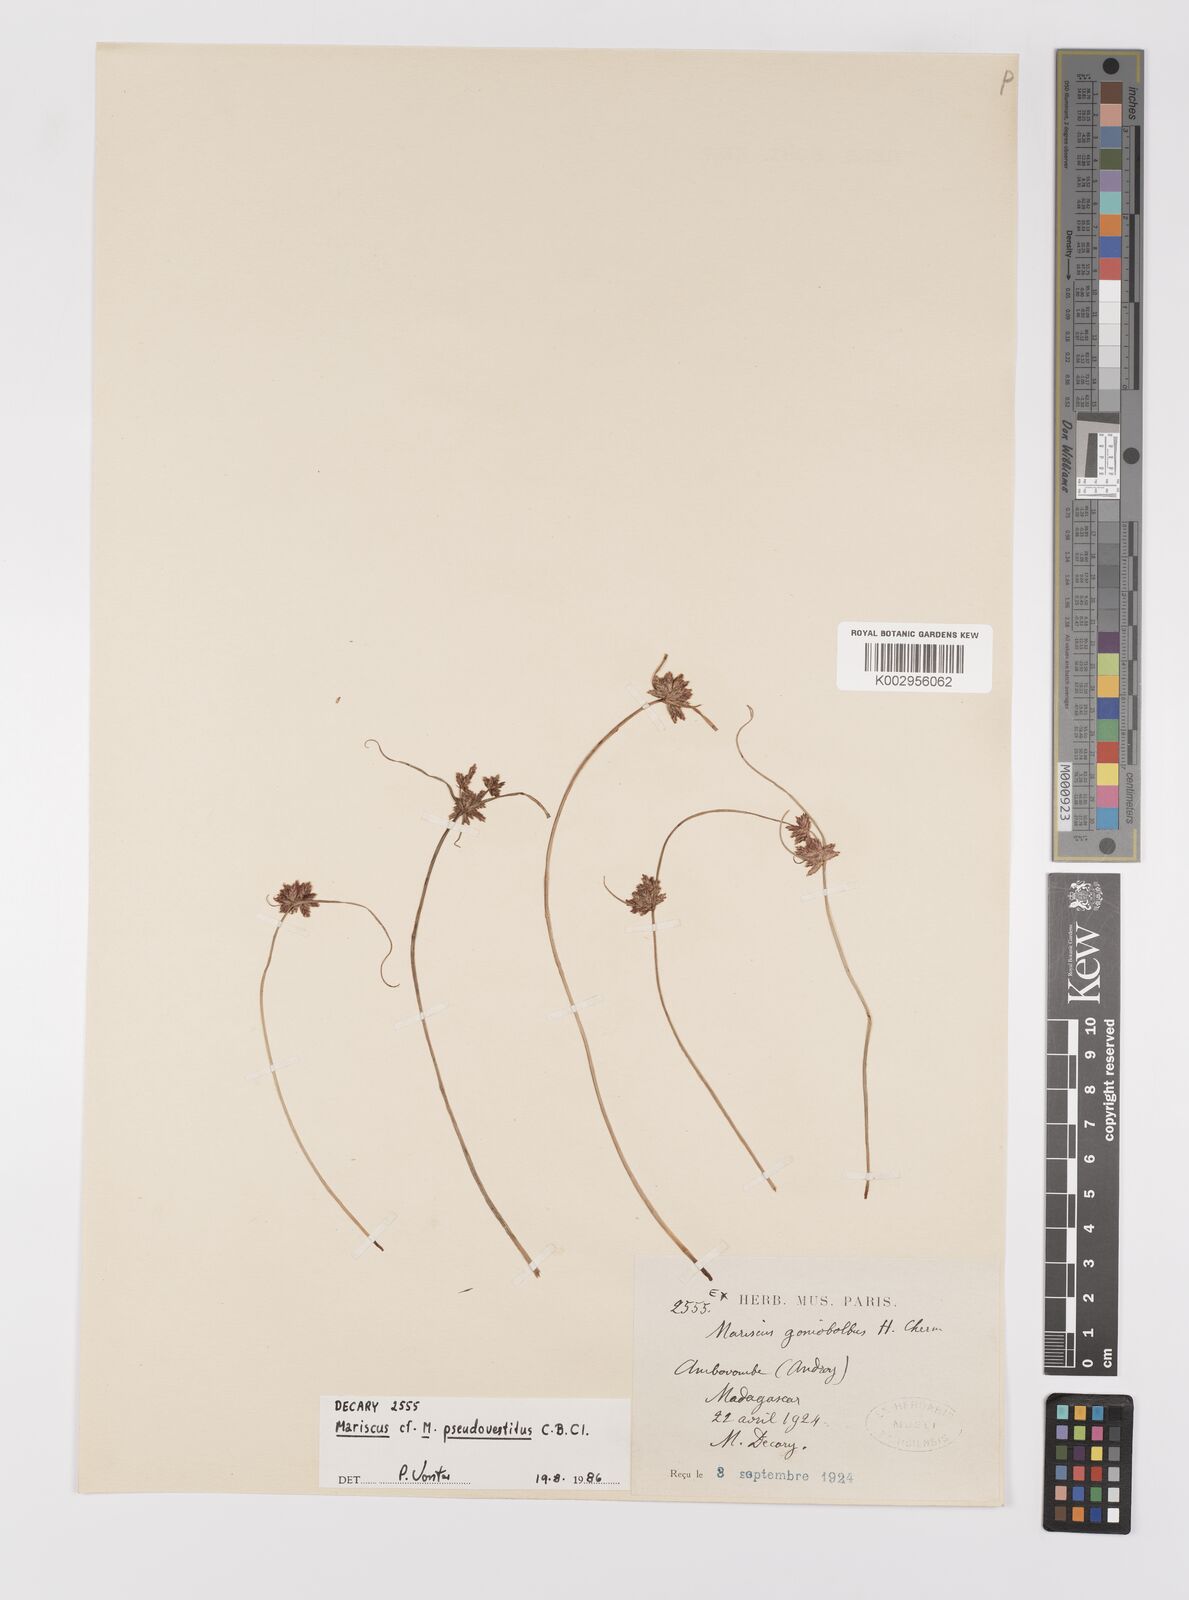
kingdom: Plantae
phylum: Tracheophyta
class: Liliopsida
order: Poales
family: Cyperaceae
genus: Cyperus
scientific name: Cyperus pseudovestitus
